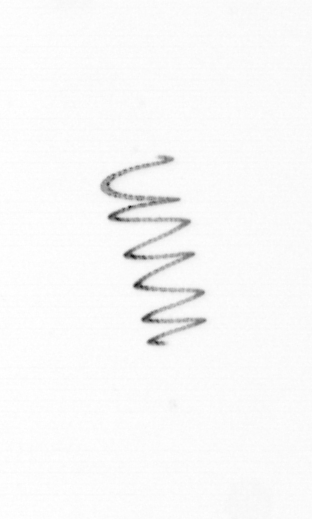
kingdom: Chromista
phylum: Ochrophyta
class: Bacillariophyceae
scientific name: Bacillariophyceae
